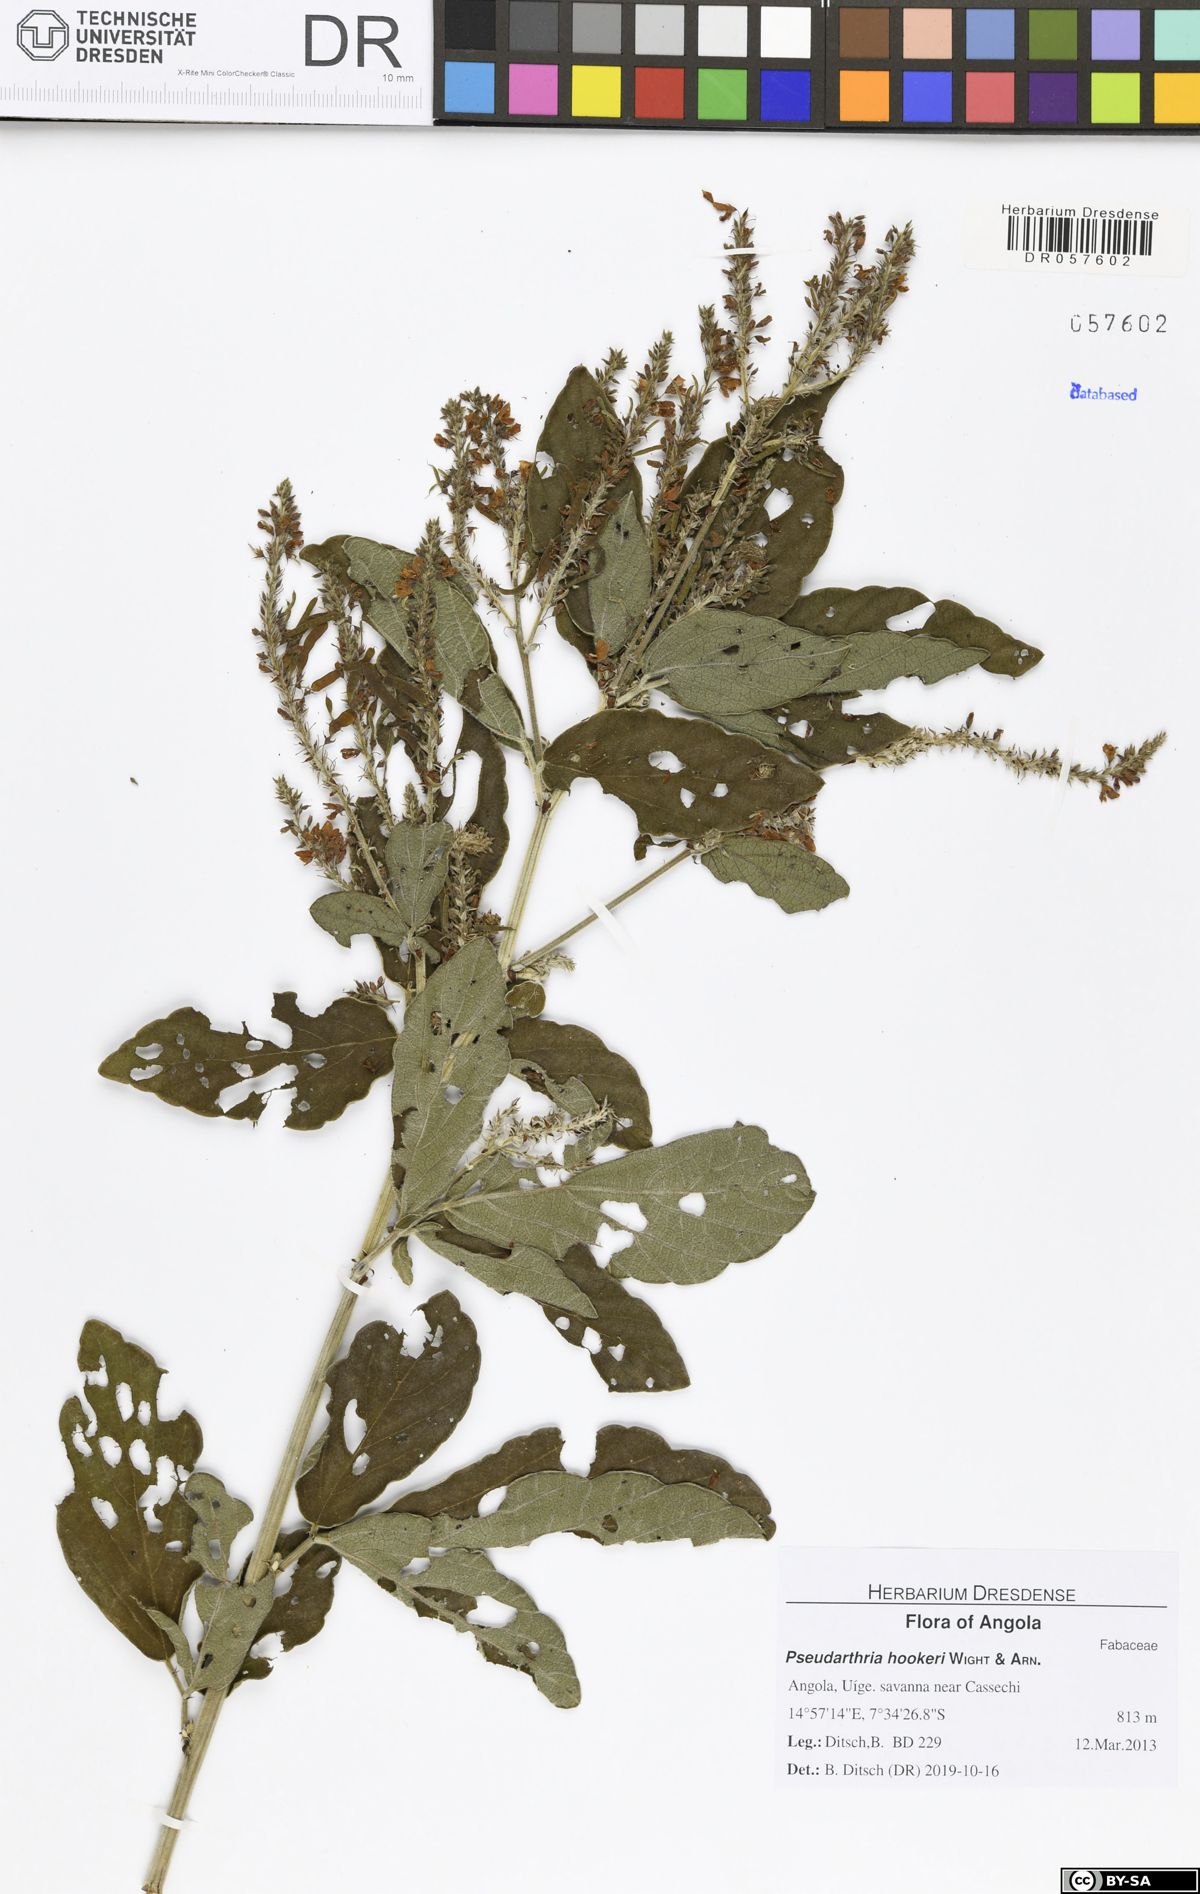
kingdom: Plantae
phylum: Tracheophyta
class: Magnoliopsida
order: Fabales
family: Fabaceae
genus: Pseudarthria
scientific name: Pseudarthria hookeri
